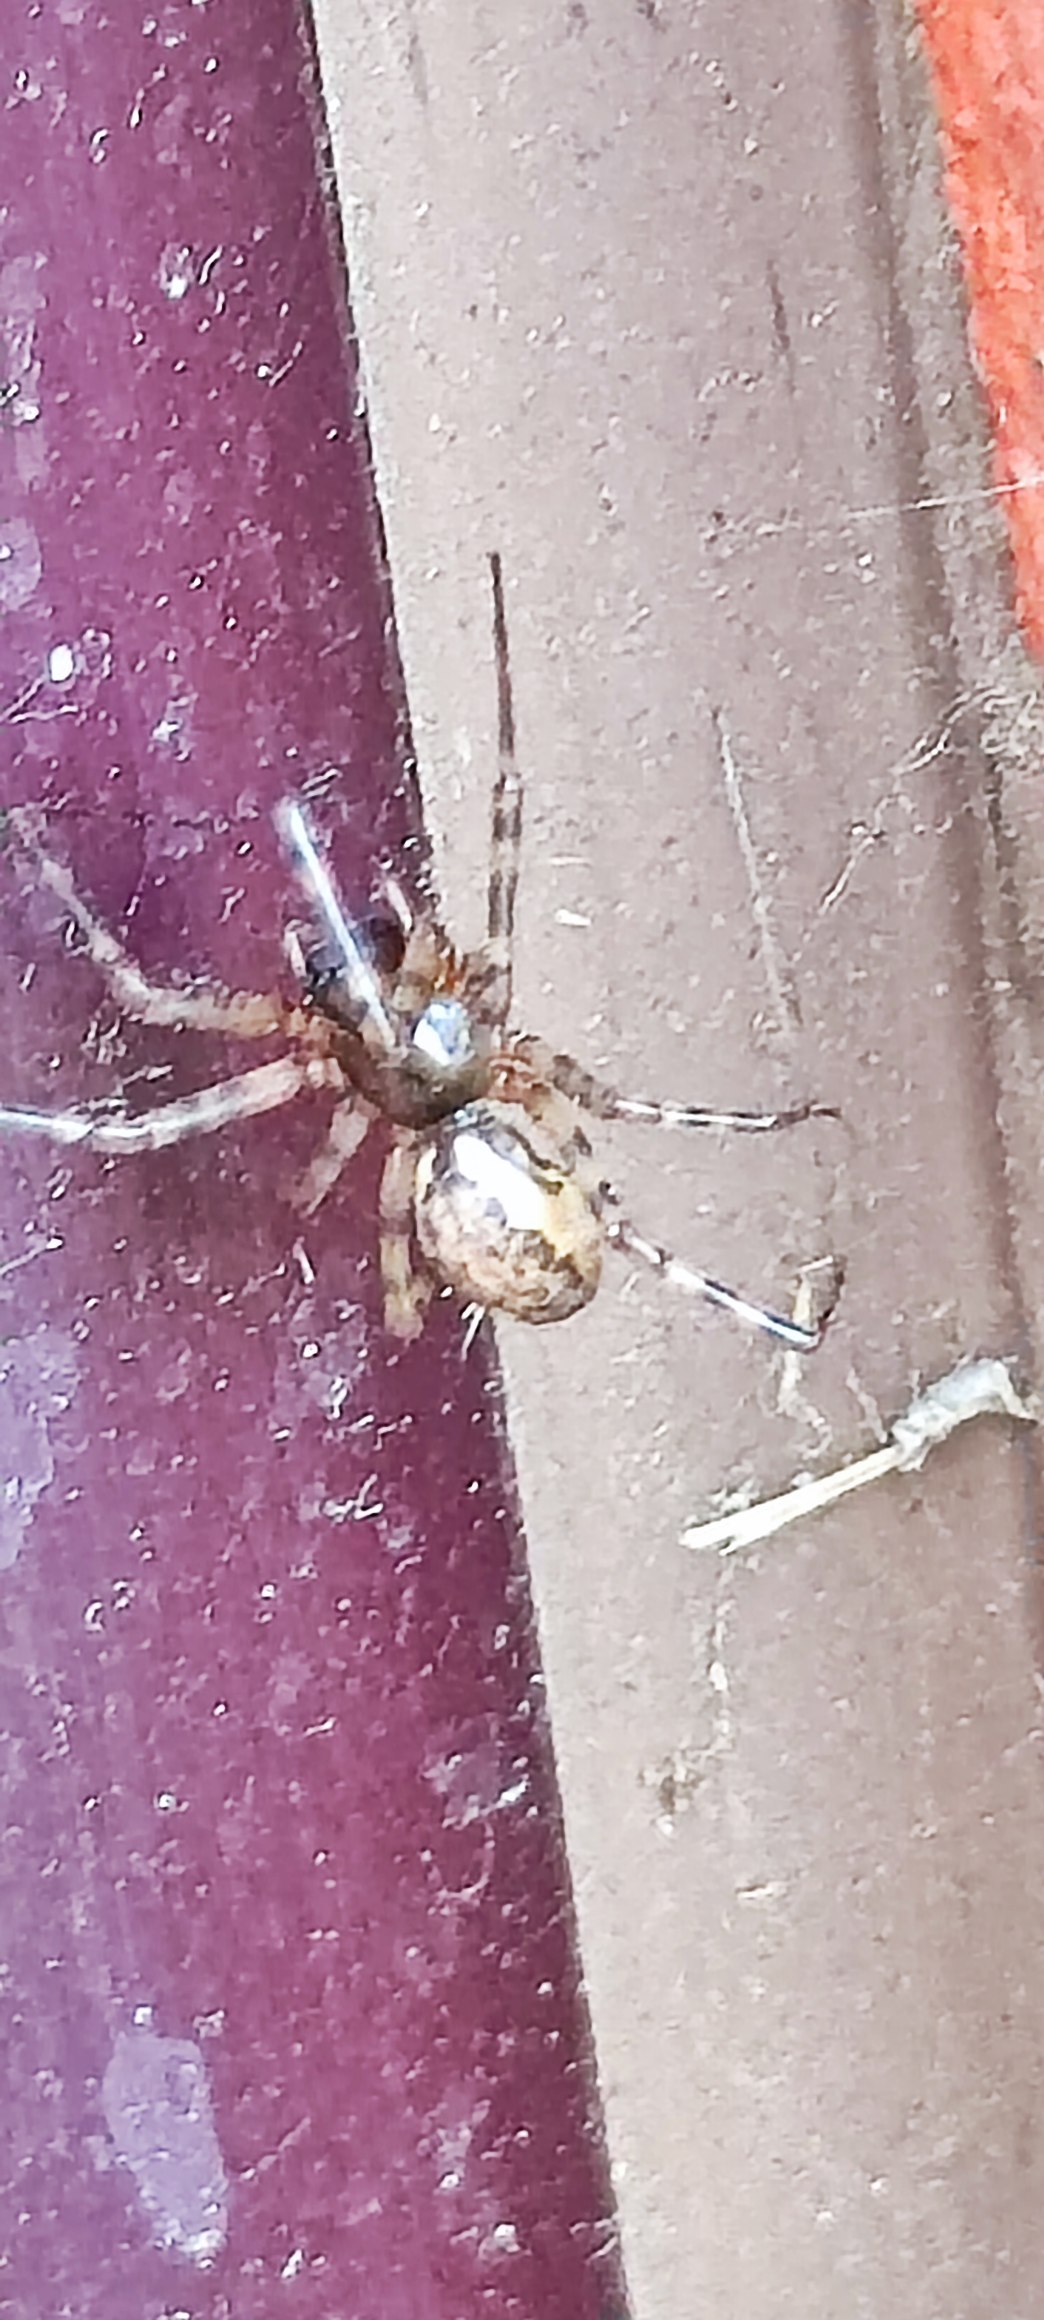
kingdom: Animalia
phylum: Arthropoda
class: Arachnida
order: Araneae
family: Linyphiidae
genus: Neriene
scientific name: Neriene
